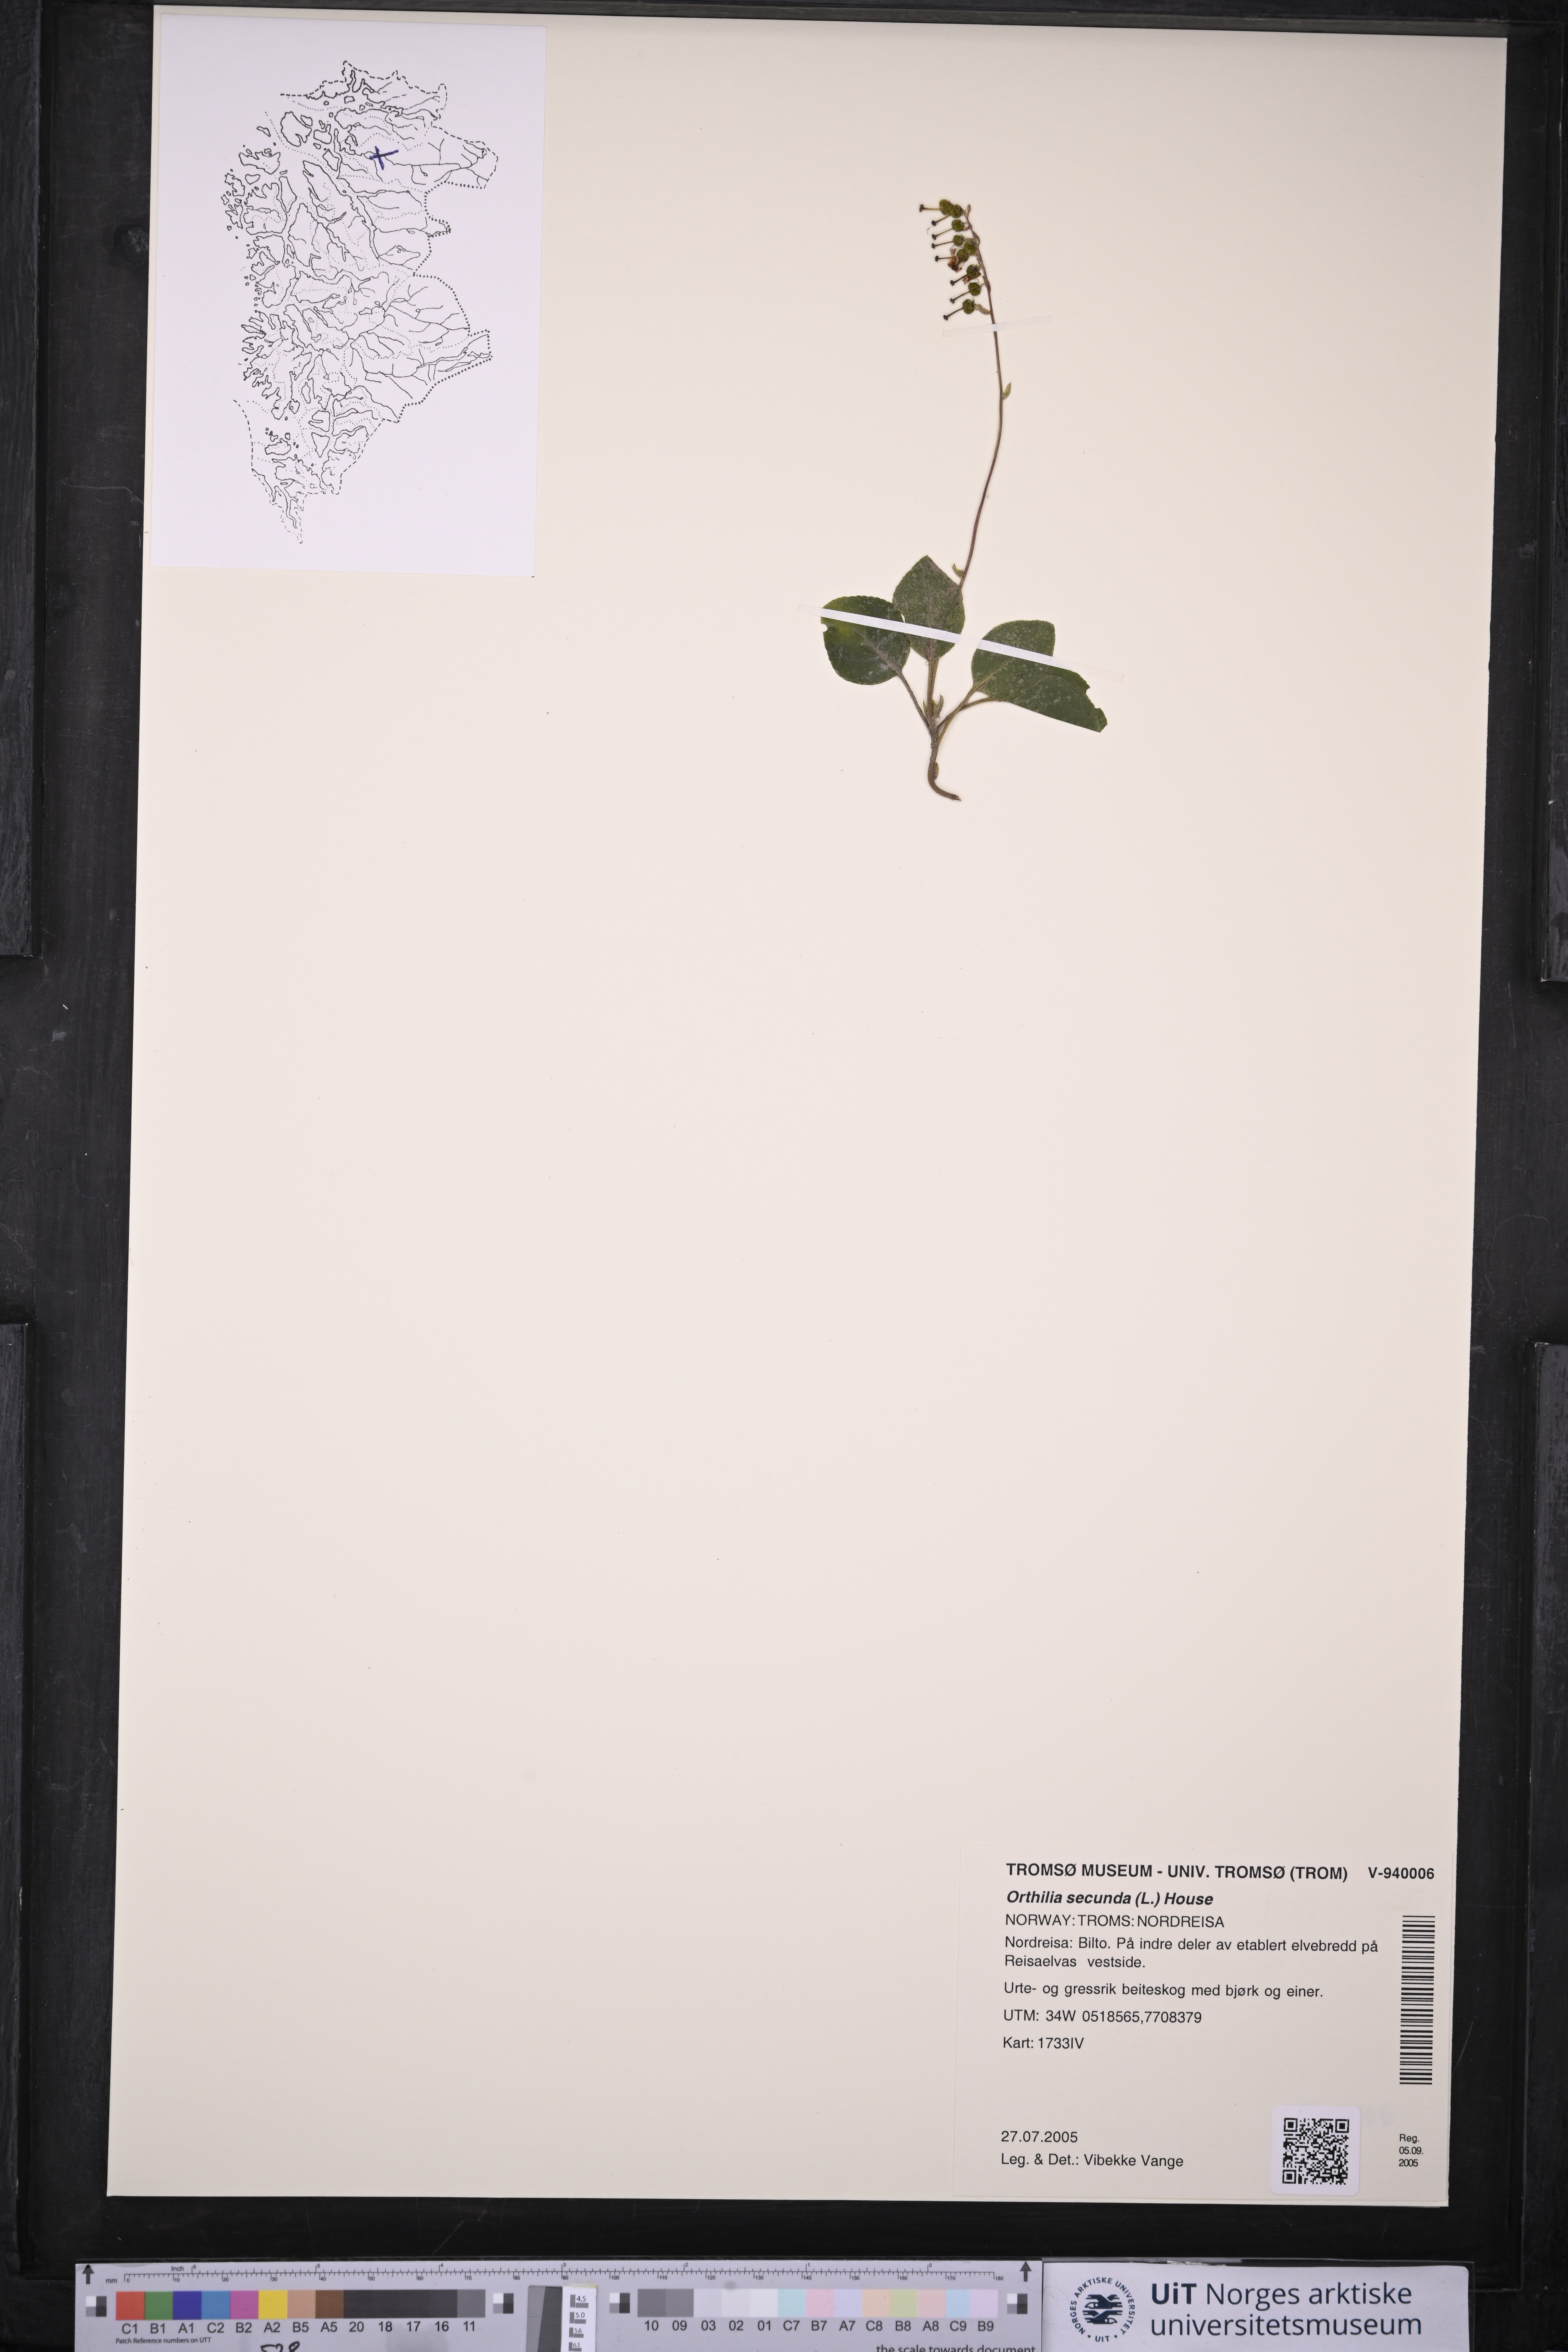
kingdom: Plantae
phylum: Tracheophyta
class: Magnoliopsida
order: Ericales
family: Ericaceae
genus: Orthilia
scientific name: Orthilia secunda
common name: One-sided orthilia
